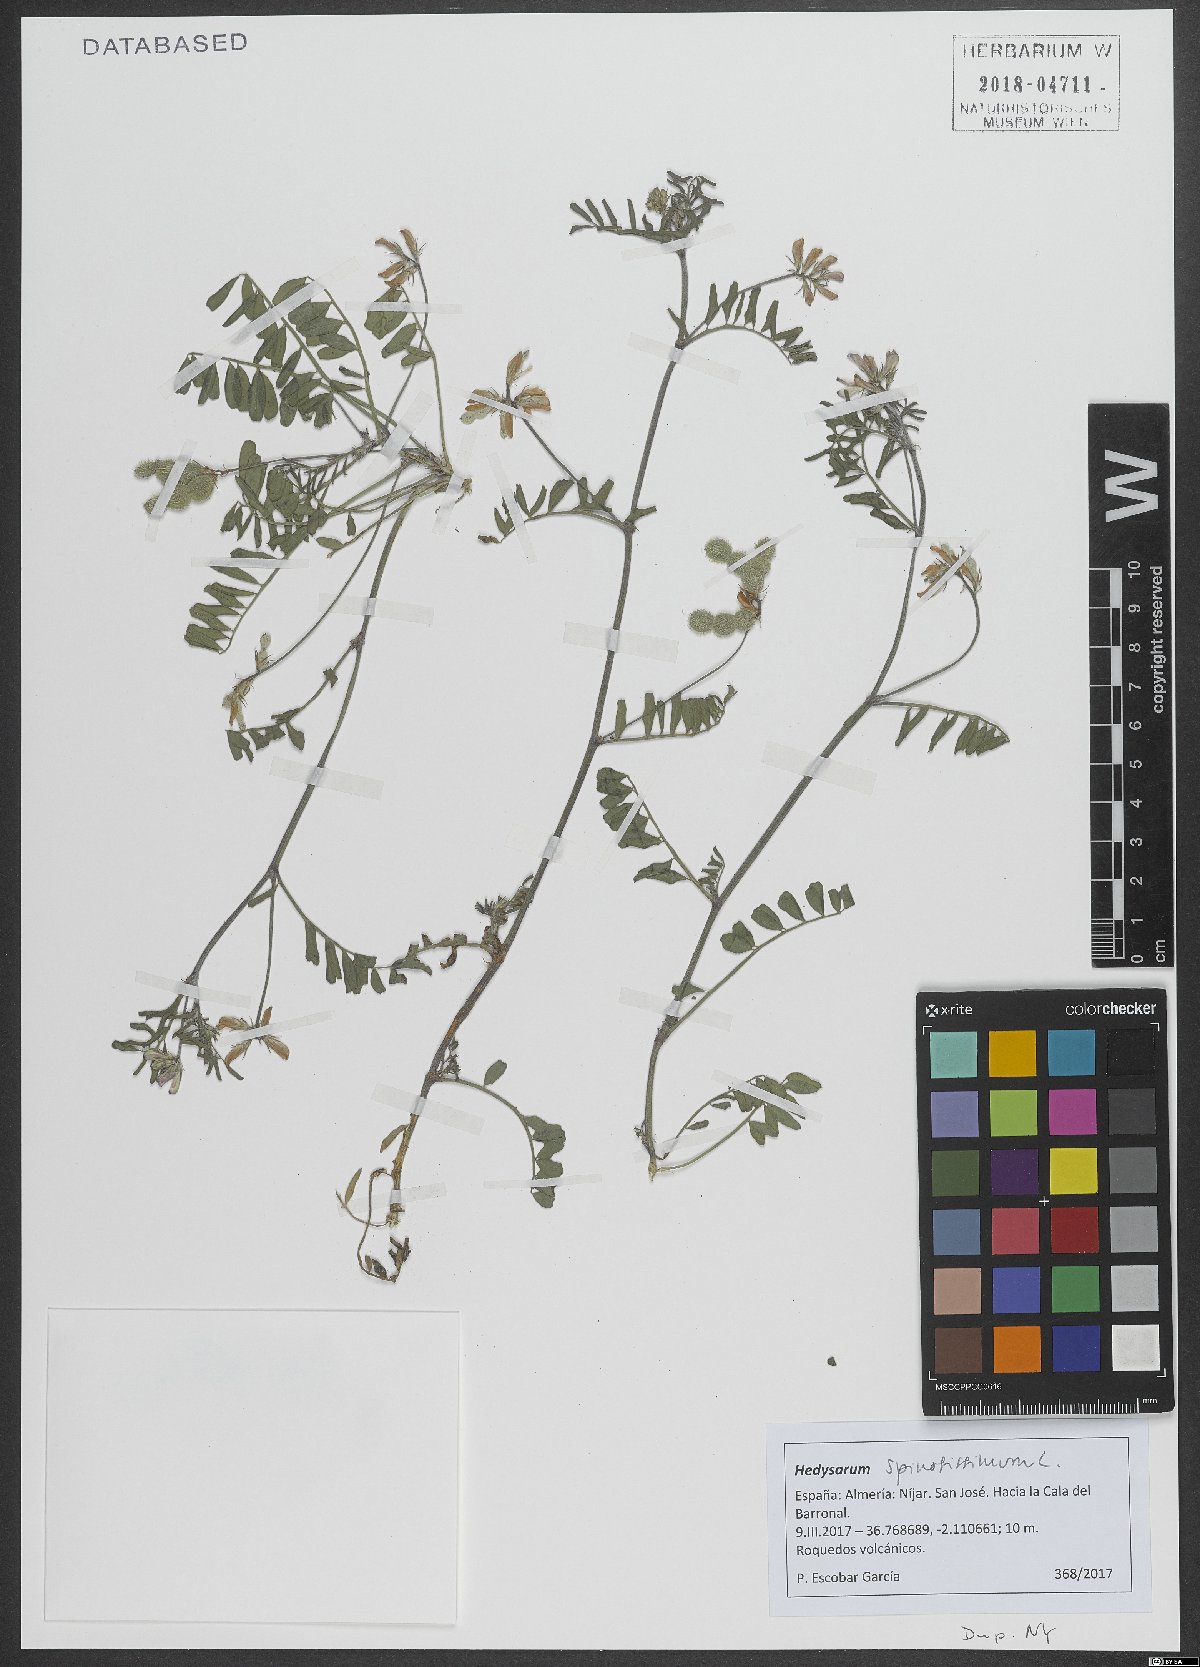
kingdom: Plantae
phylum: Tracheophyta
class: Magnoliopsida
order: Fabales
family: Fabaceae
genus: Sulla
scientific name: Sulla spinosissima
